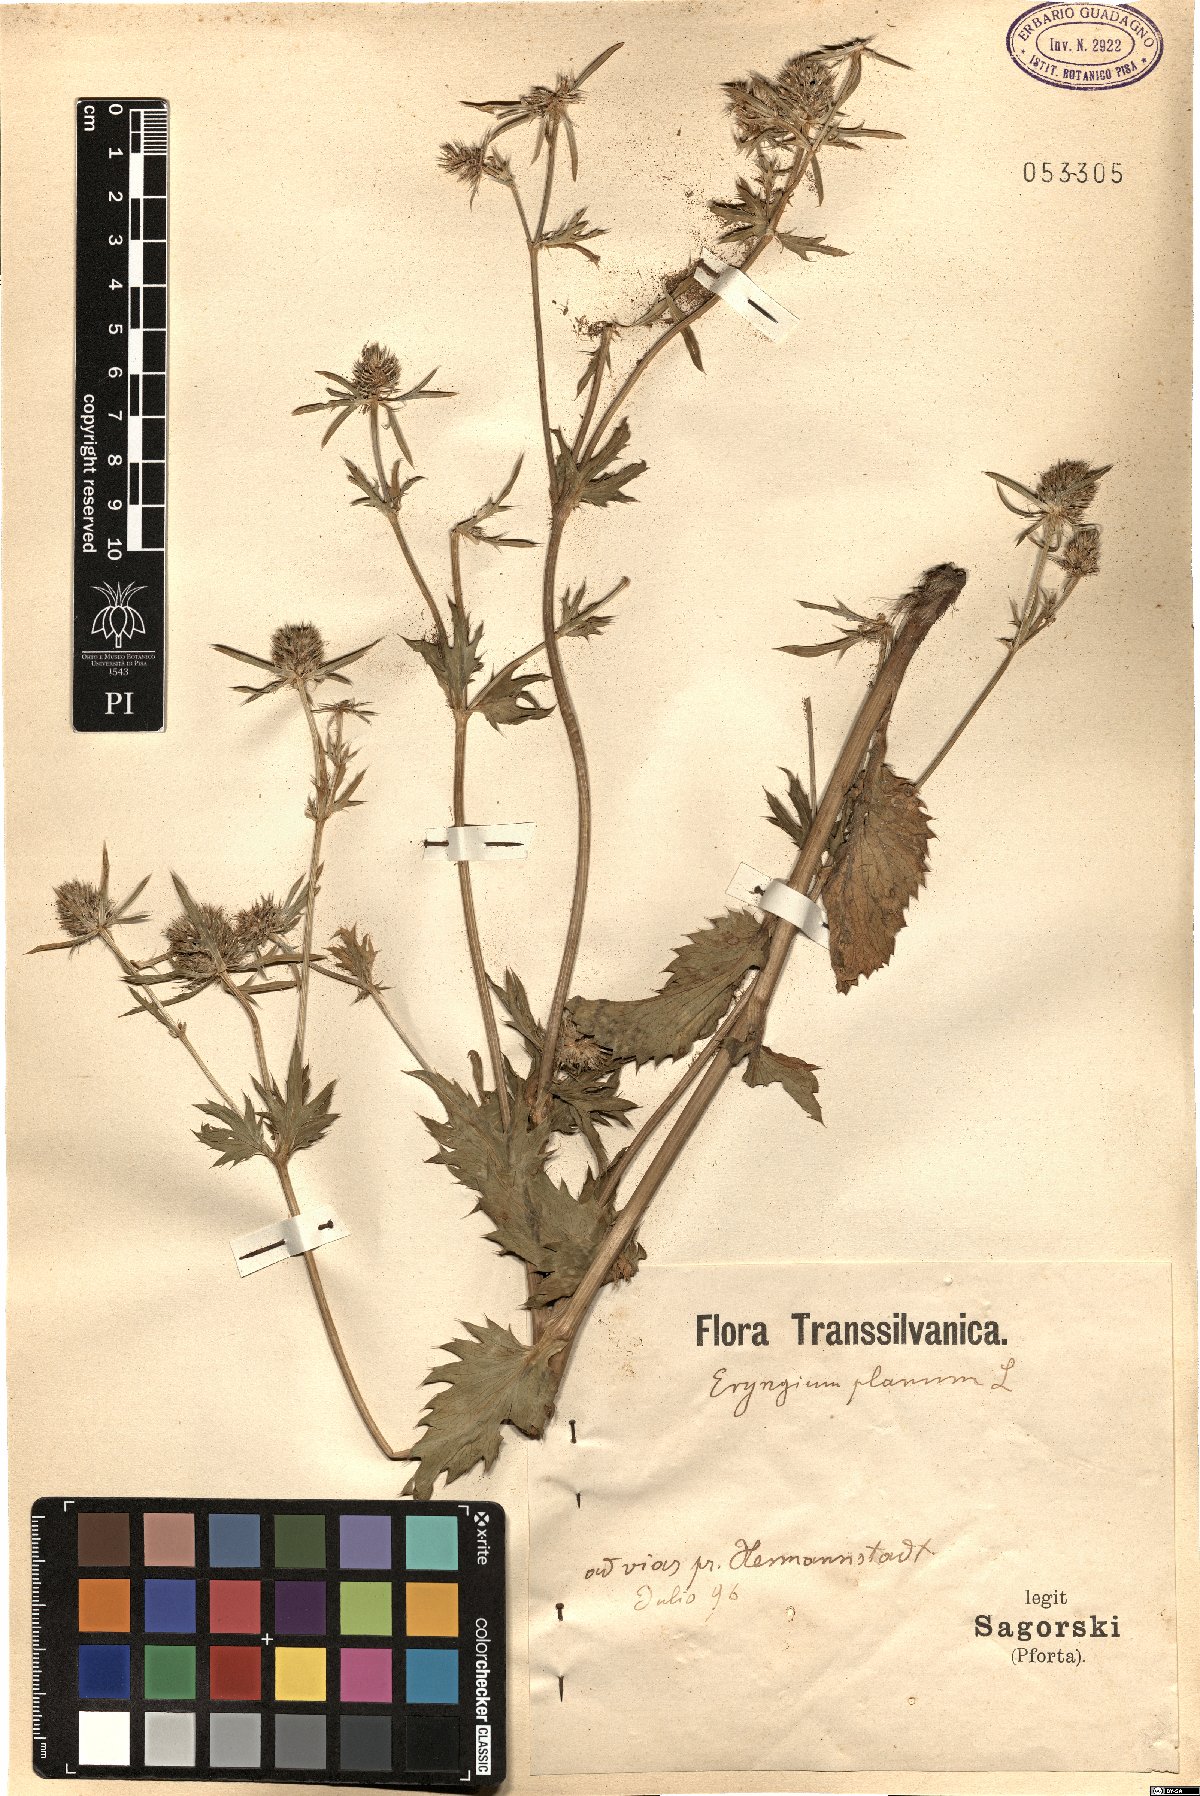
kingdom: Plantae
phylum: Tracheophyta
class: Magnoliopsida
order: Apiales
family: Apiaceae
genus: Eryngium
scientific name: Eryngium planum
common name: Blue eryngo
